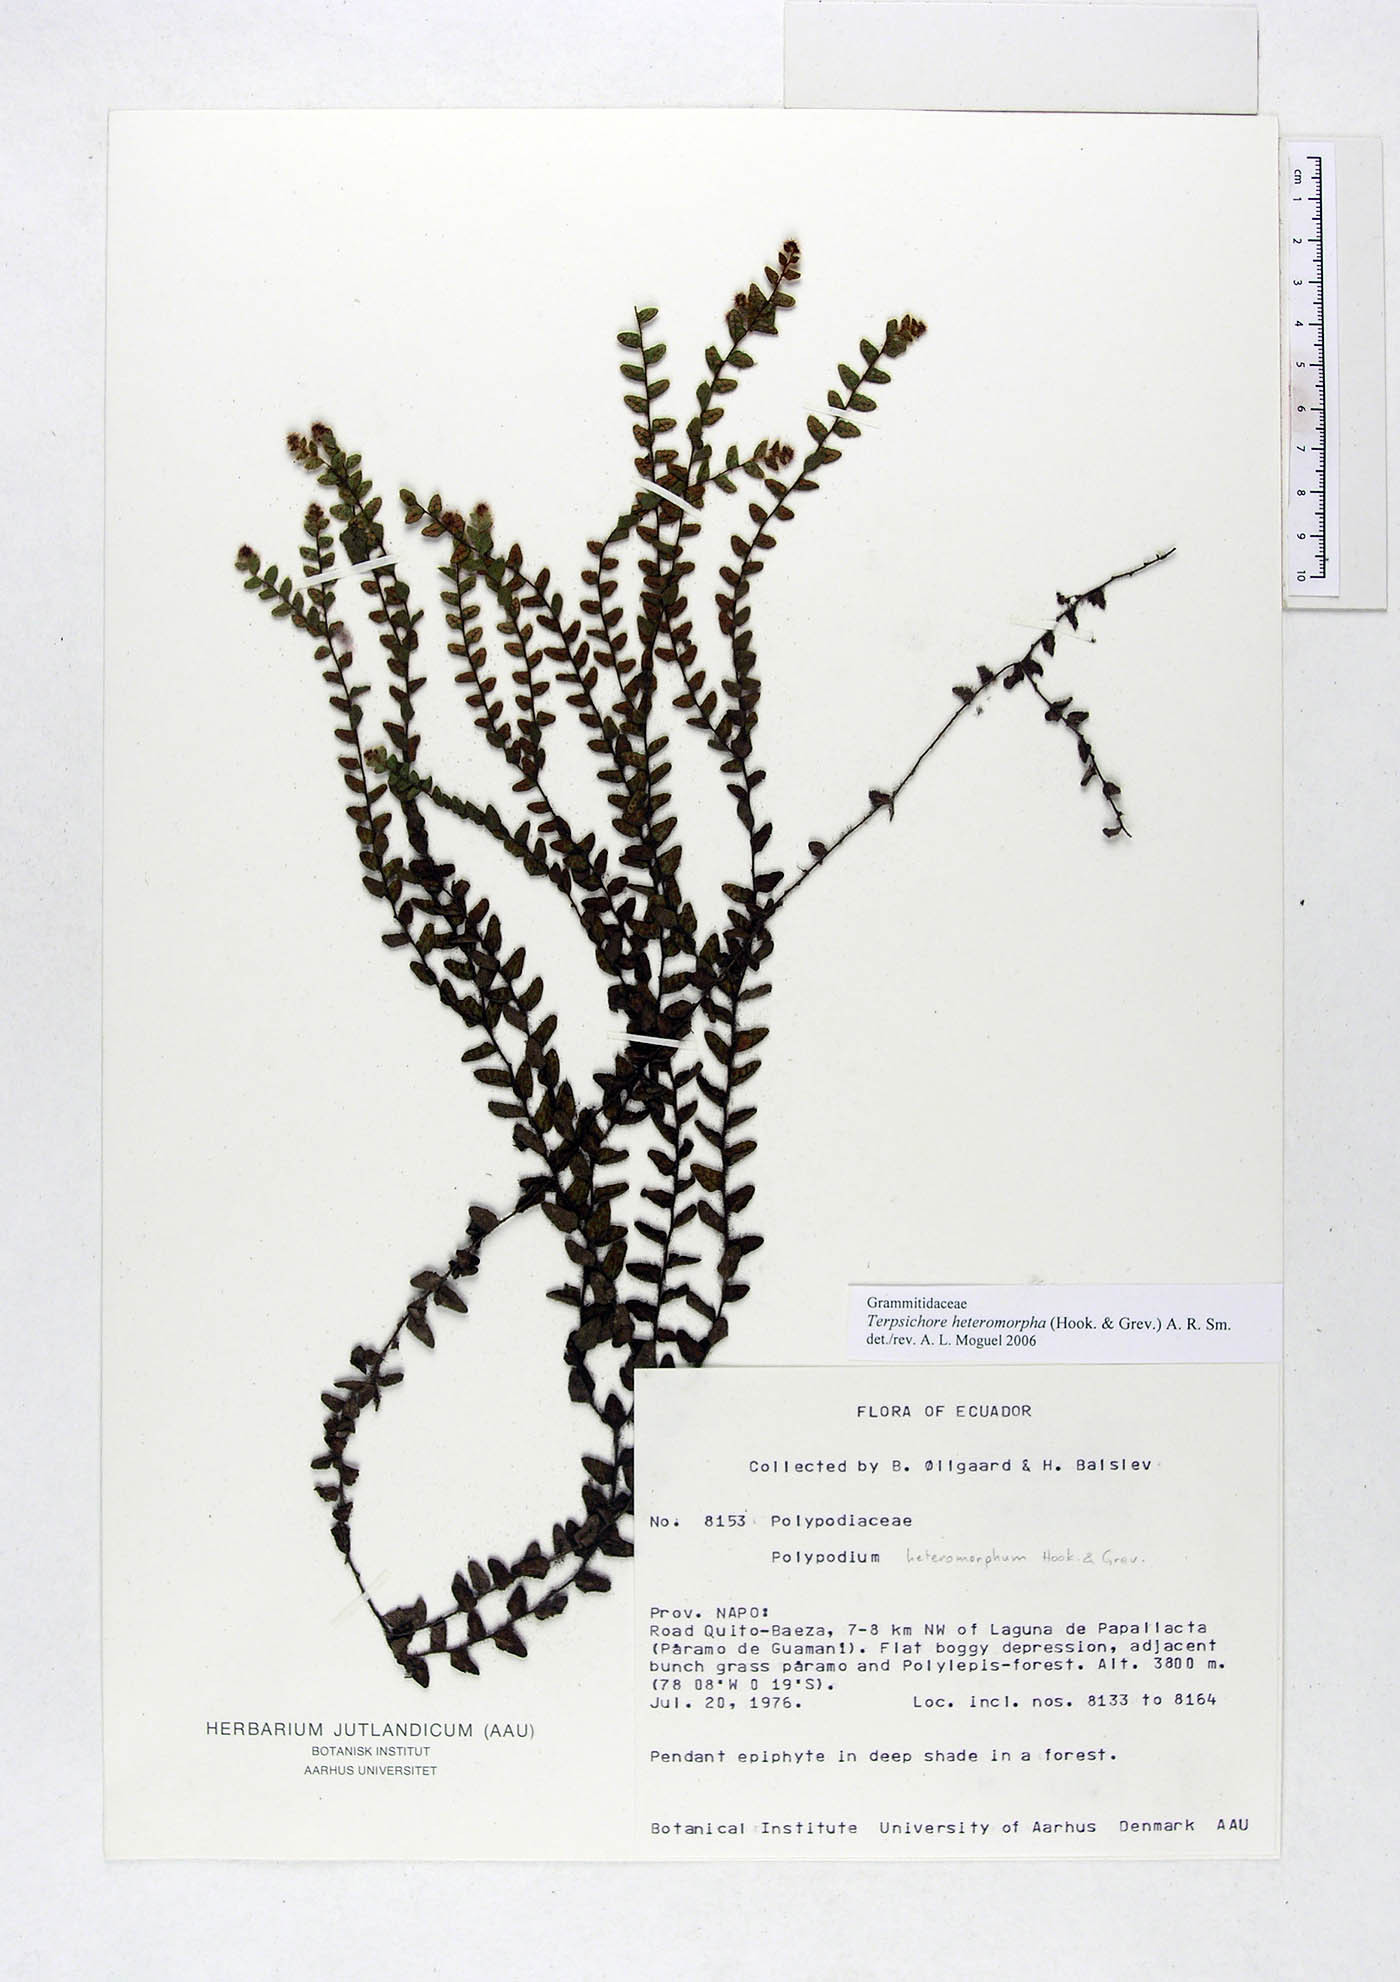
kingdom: Plantae
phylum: Tracheophyta
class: Polypodiopsida
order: Polypodiales
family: Polypodiaceae
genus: Alansmia
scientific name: Alansmia heteromorpha
